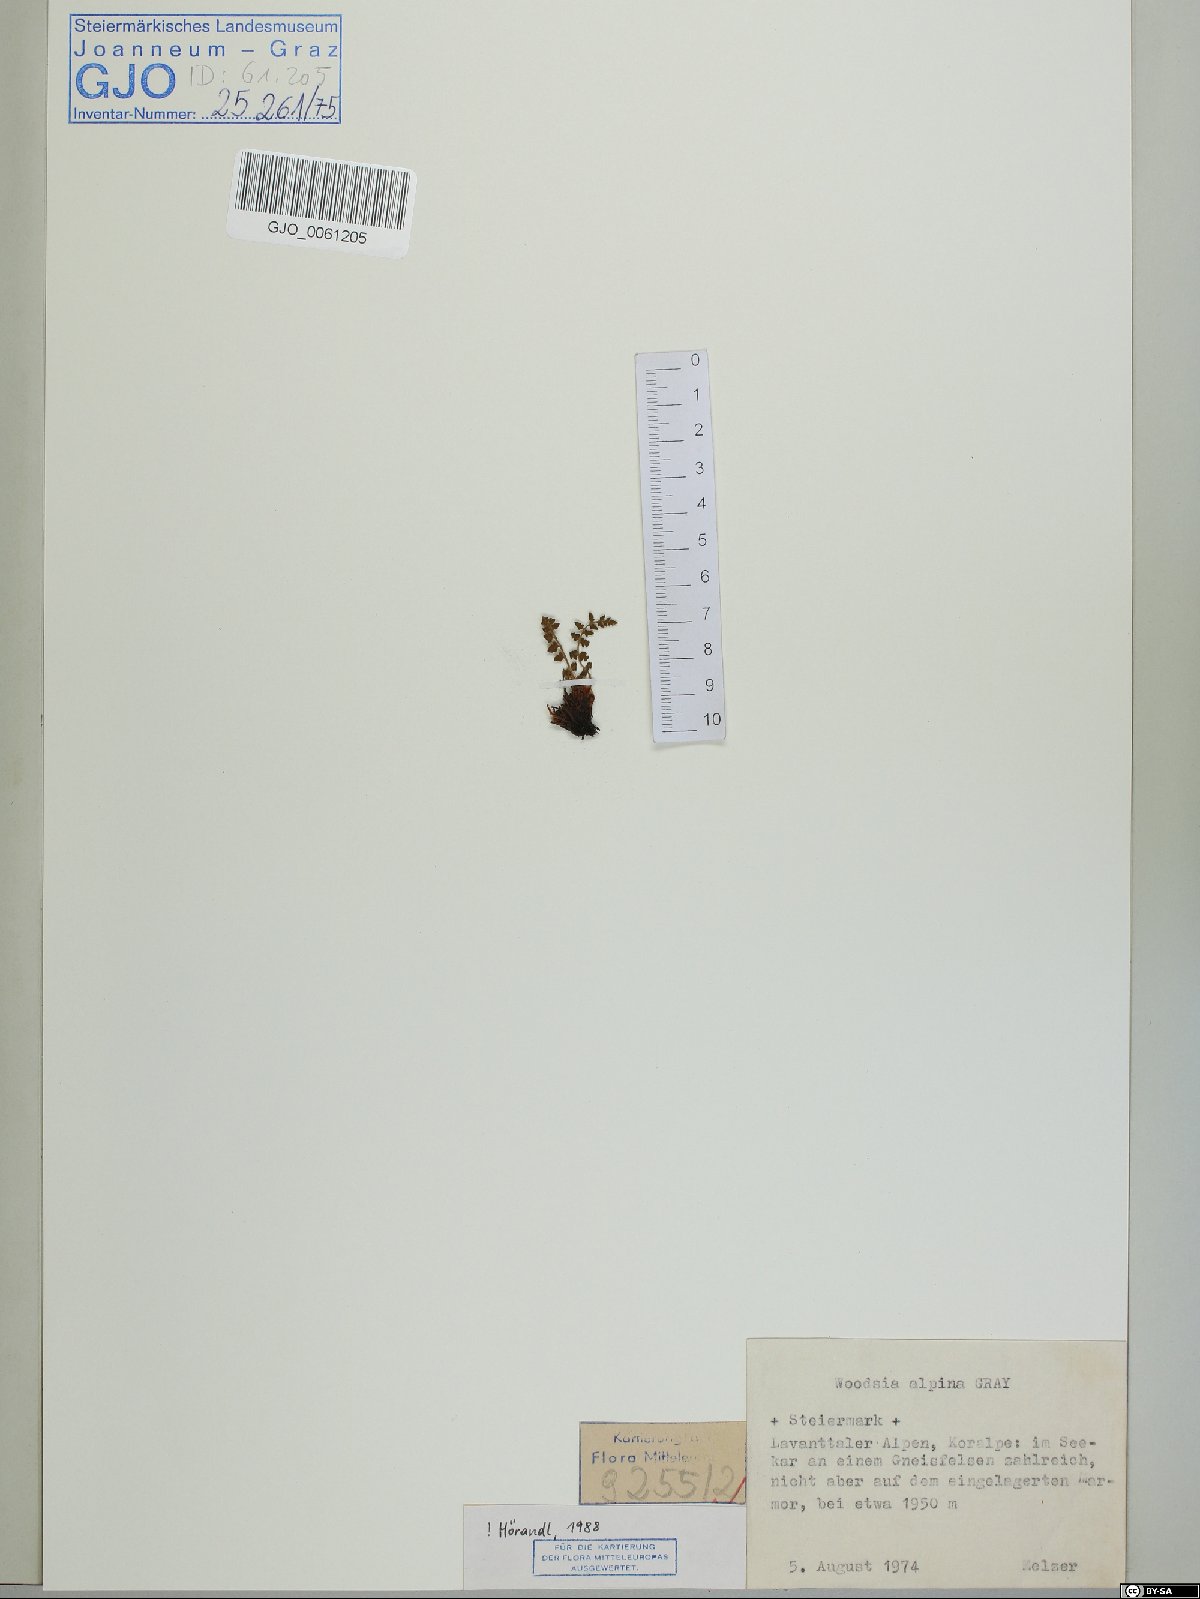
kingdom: Plantae
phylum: Tracheophyta
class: Polypodiopsida
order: Polypodiales
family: Woodsiaceae
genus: Woodsia
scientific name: Woodsia alpina
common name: Alpine woodsia
